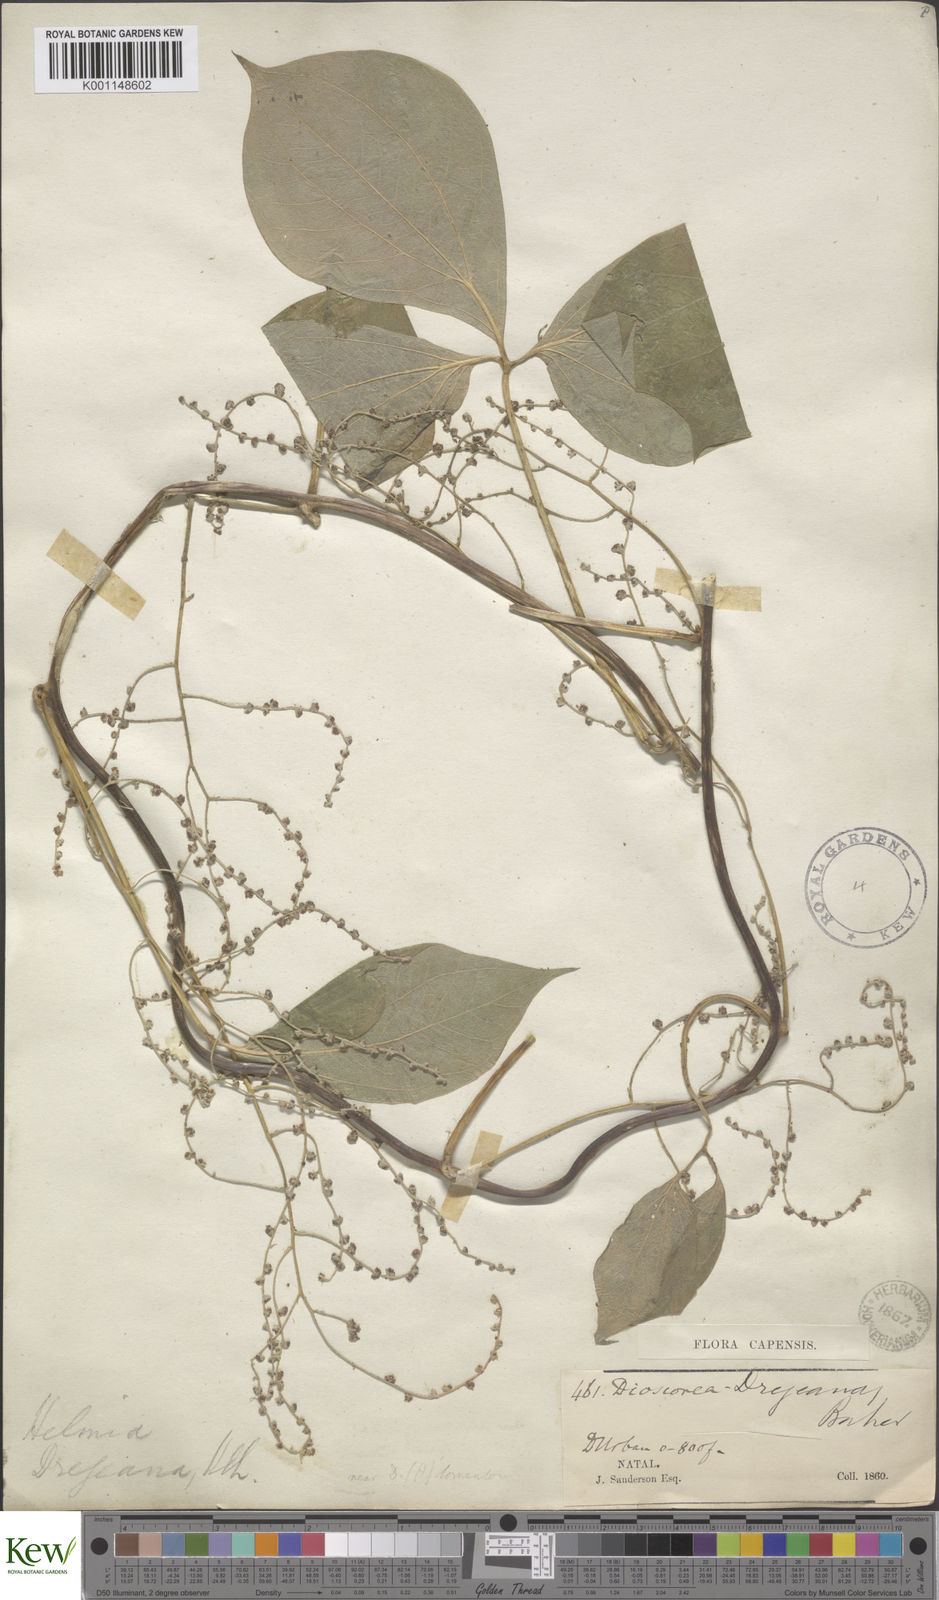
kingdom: Plantae
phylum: Tracheophyta
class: Liliopsida
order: Dioscoreales
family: Dioscoreaceae
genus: Dioscorea
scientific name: Dioscorea dregeana
